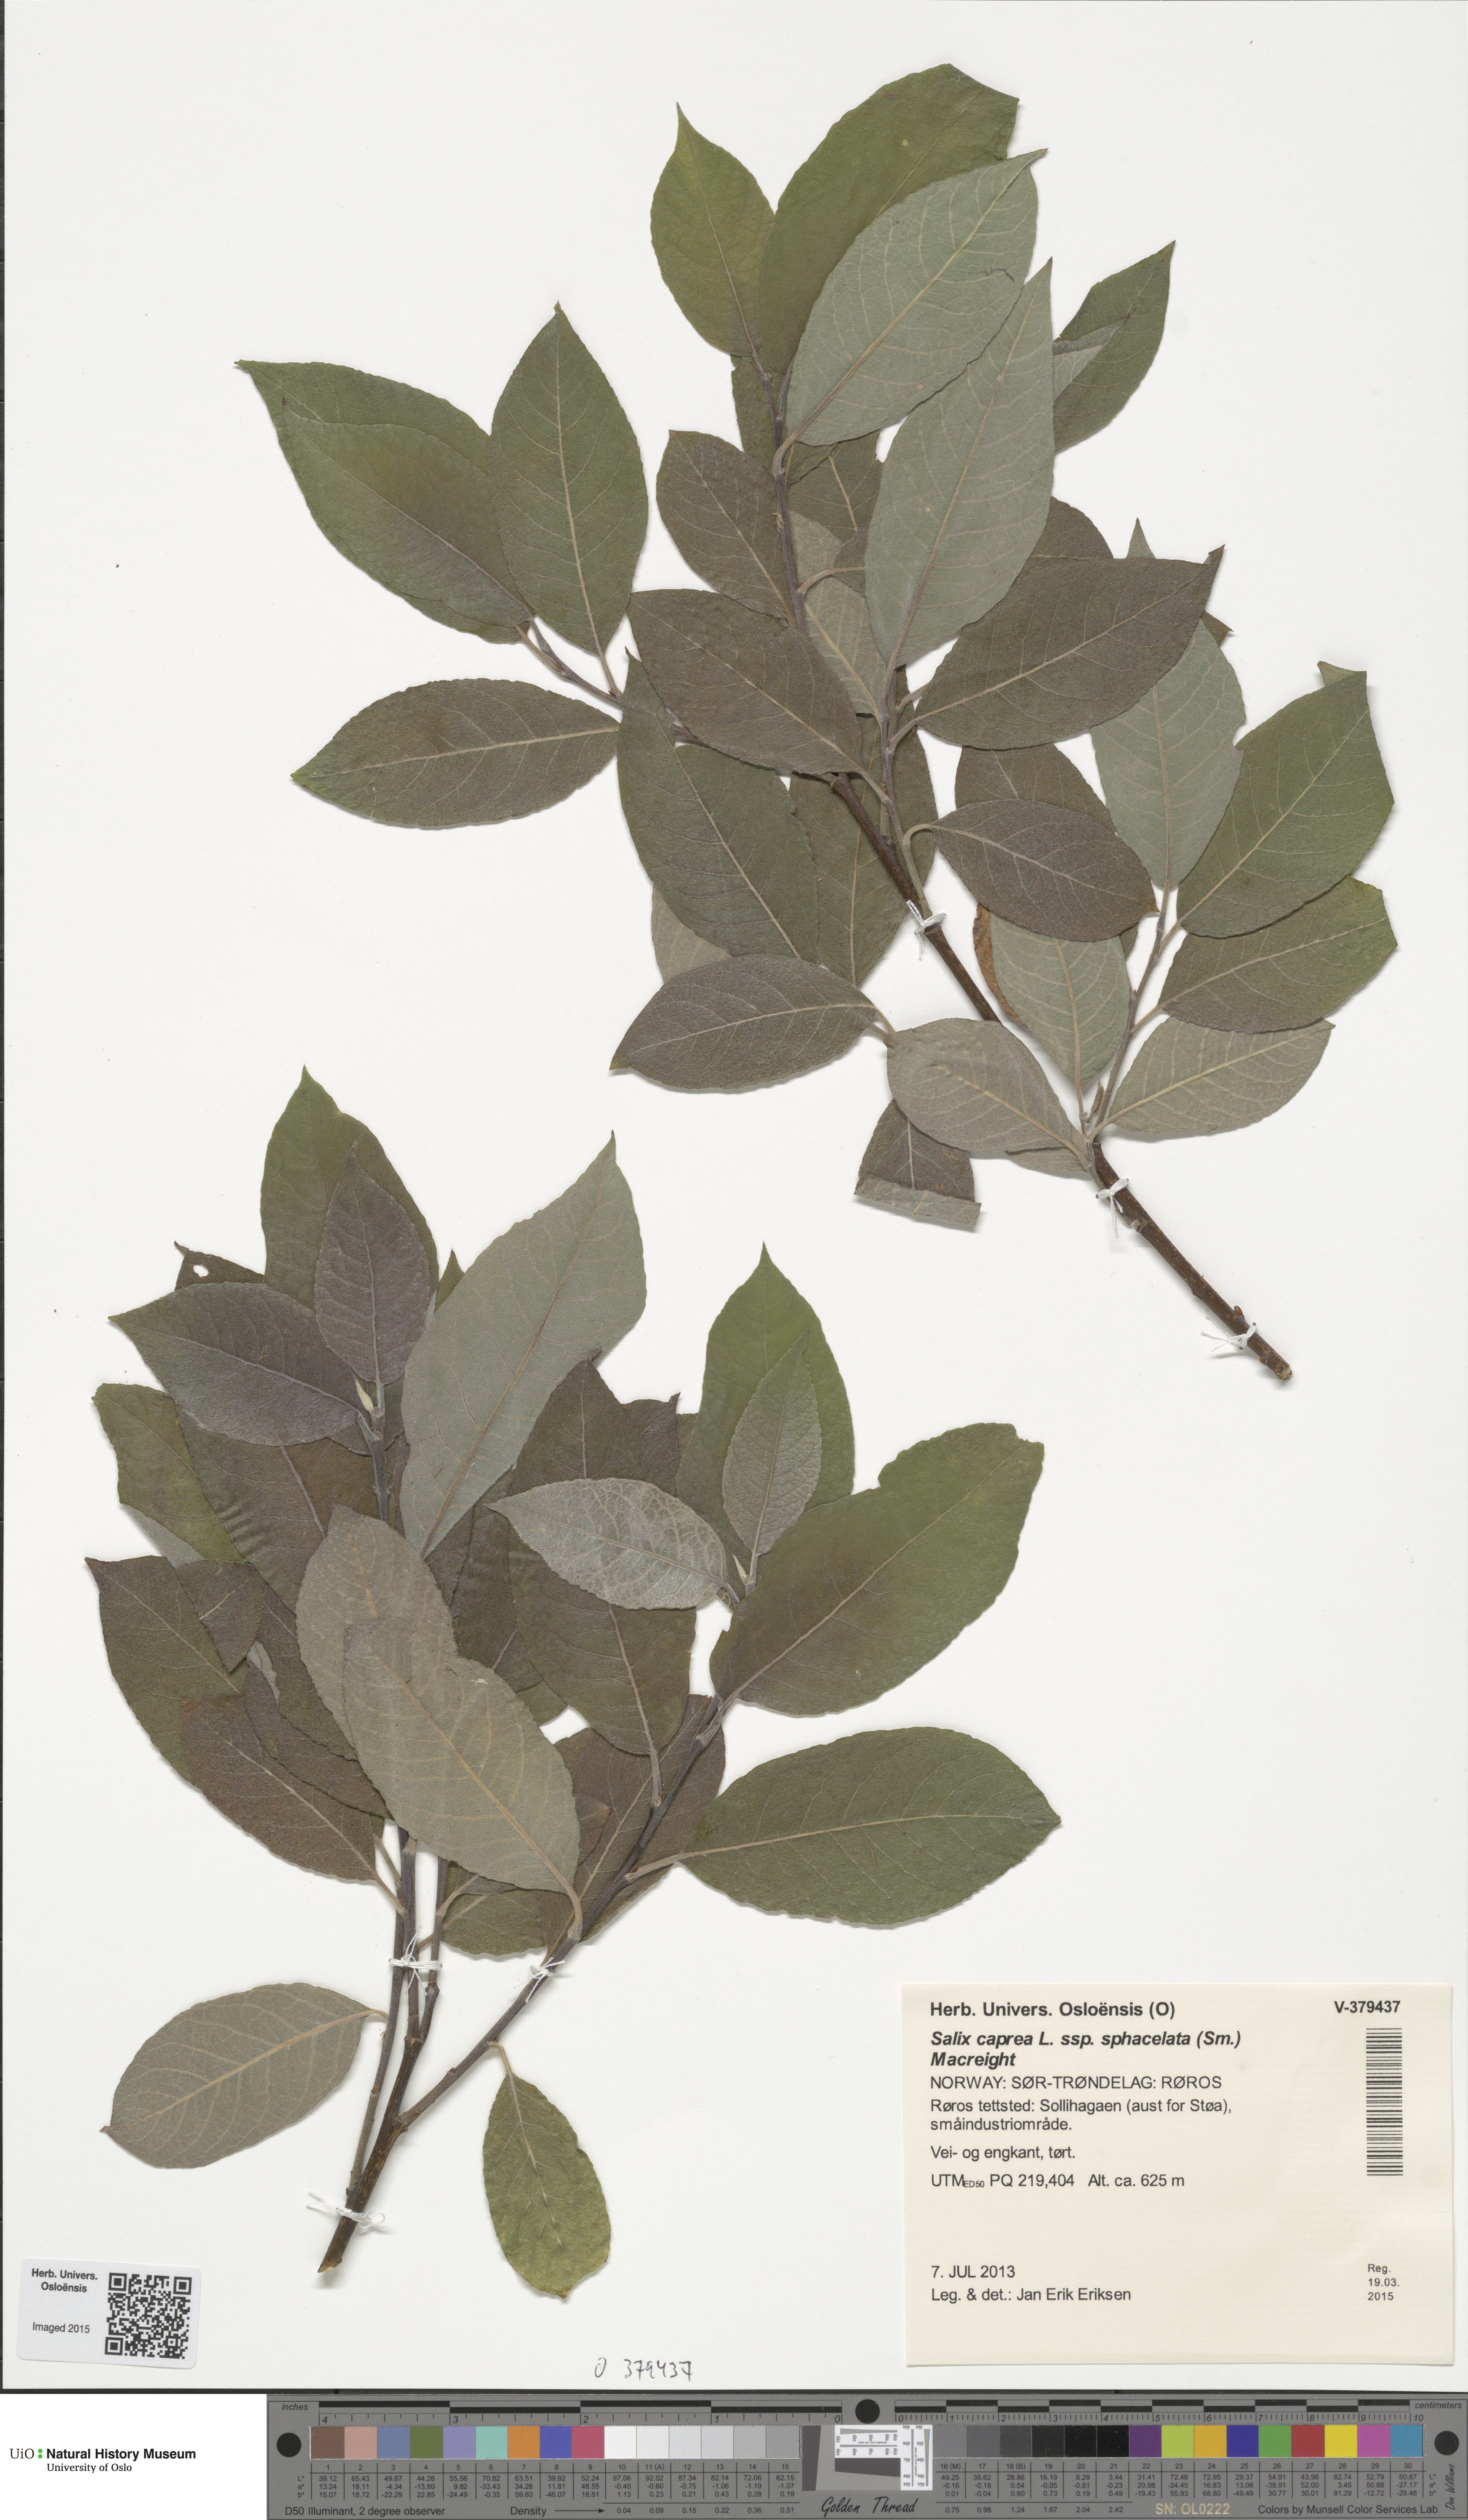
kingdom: Plantae
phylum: Tracheophyta
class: Magnoliopsida
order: Malpighiales
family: Salicaceae
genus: Salix
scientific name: Salix caprea
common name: Goat willow
